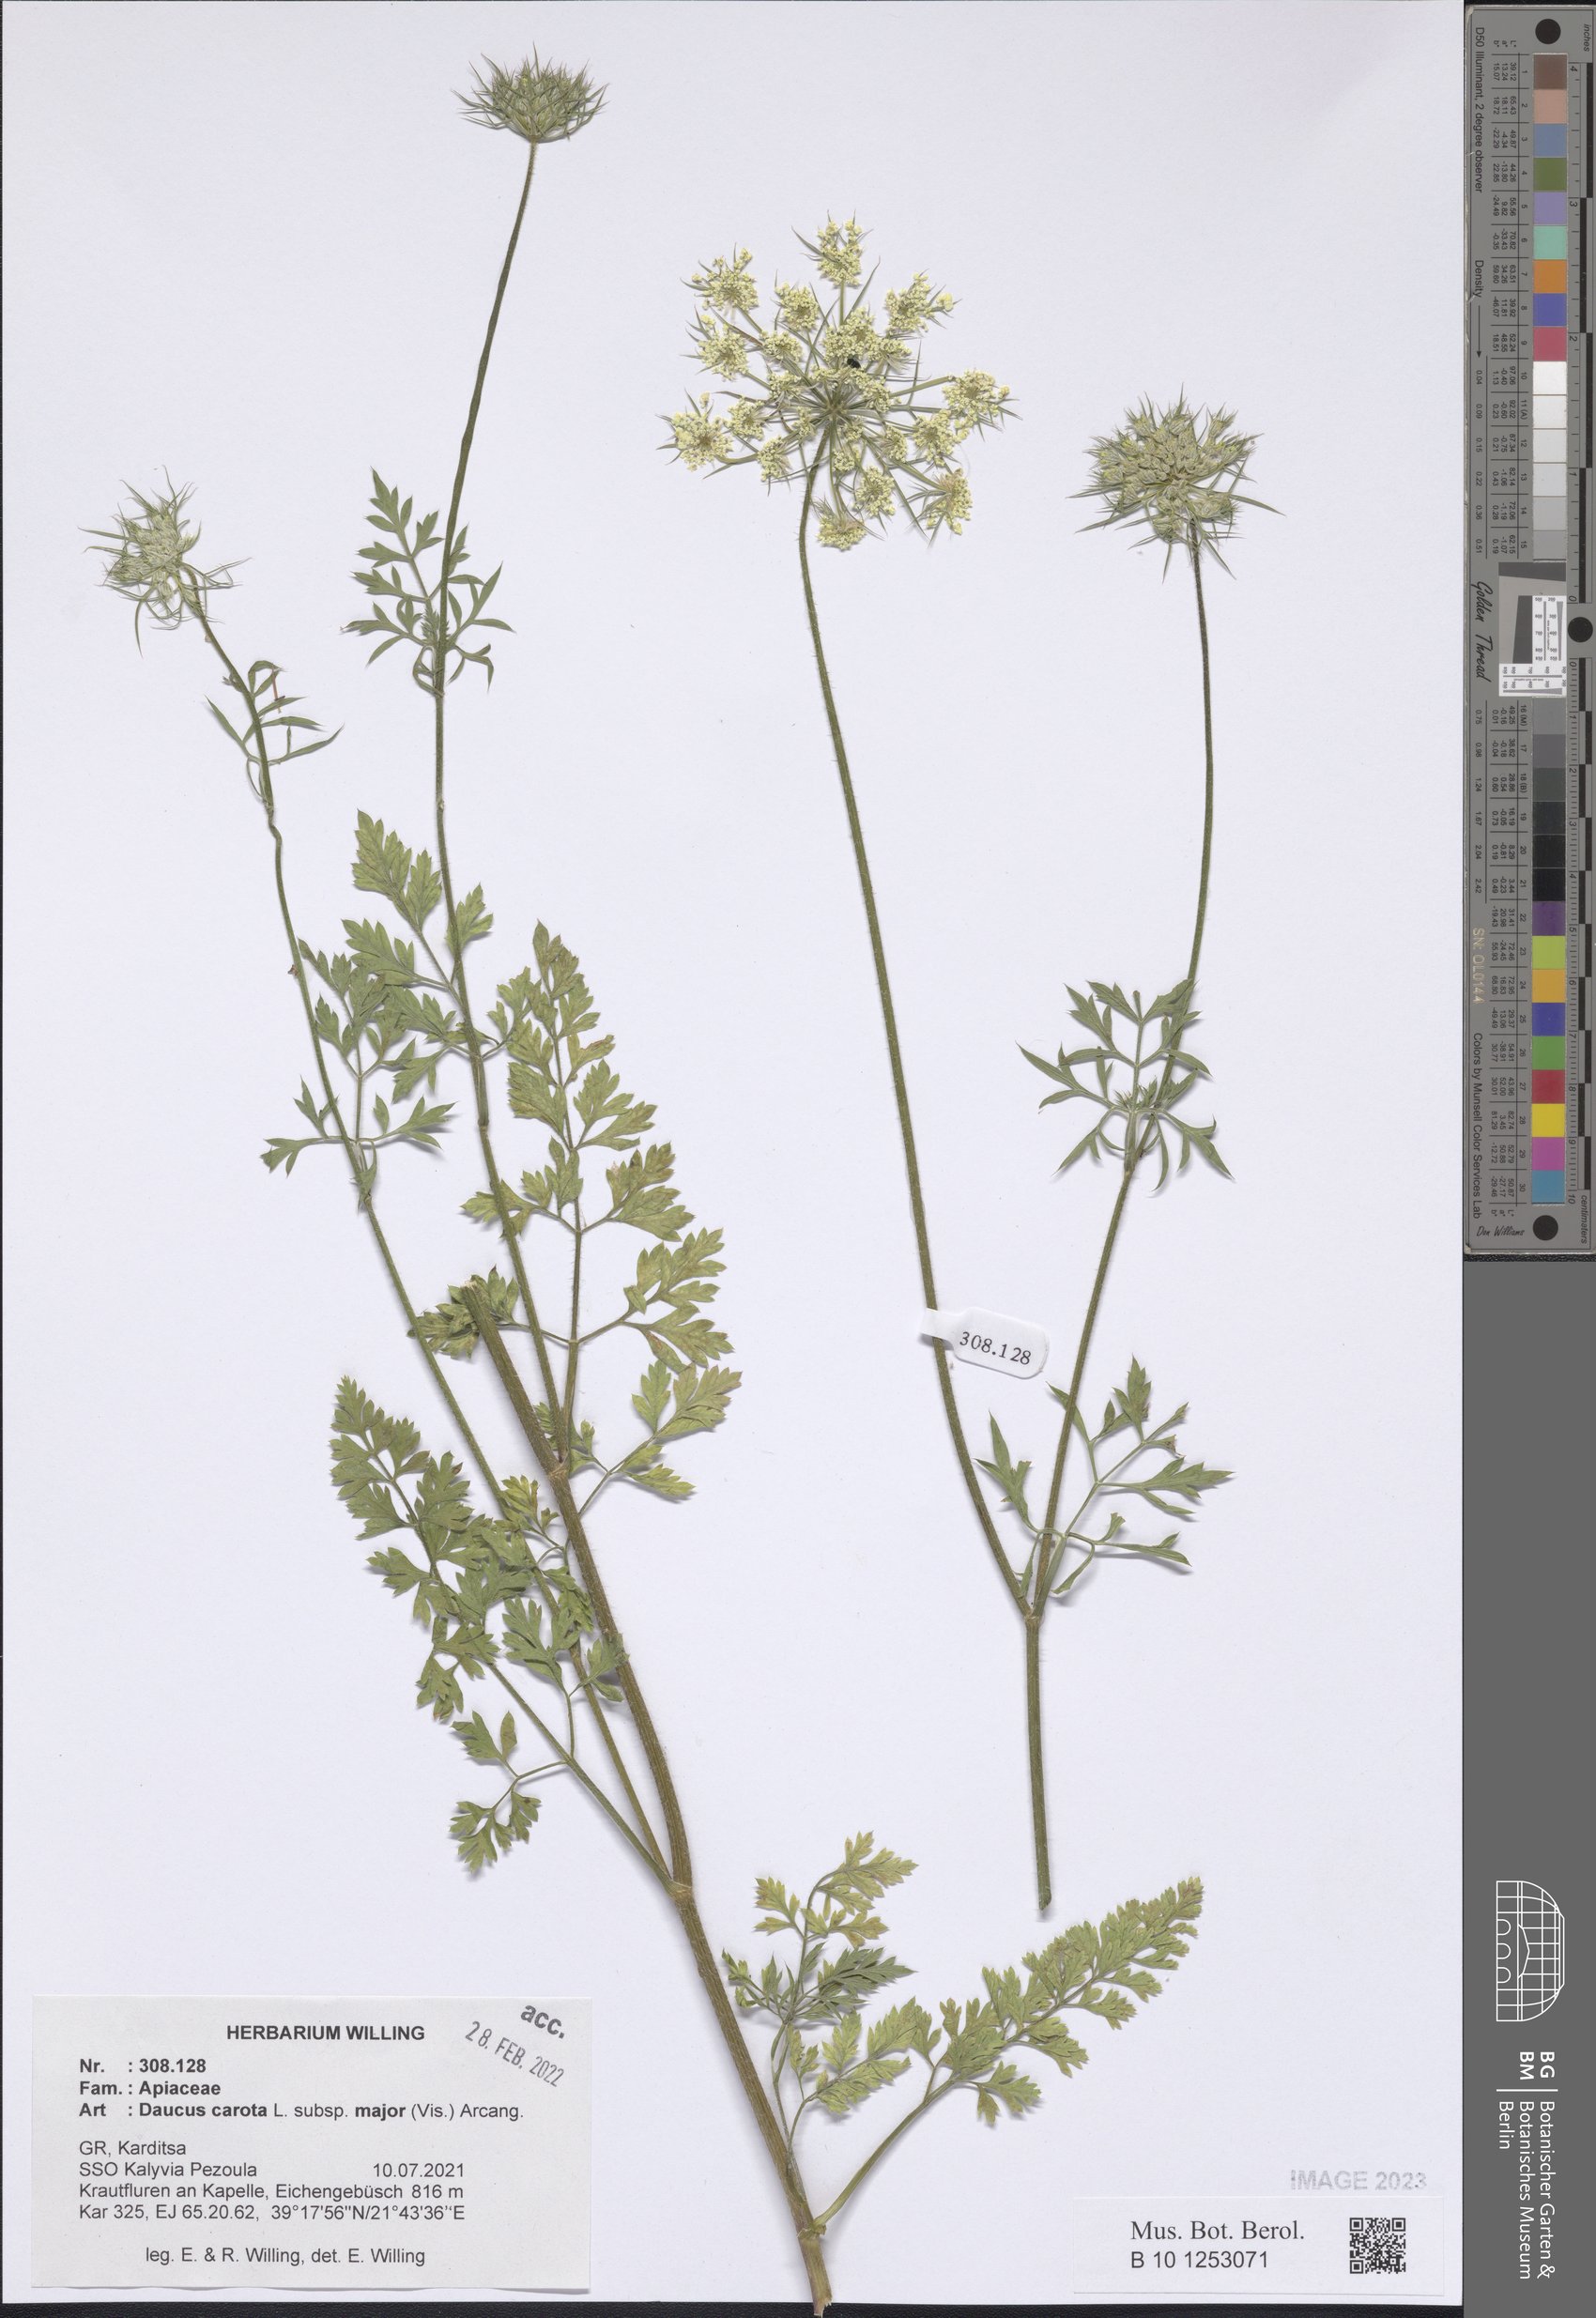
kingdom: Plantae
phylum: Tracheophyta
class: Magnoliopsida
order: Apiales
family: Apiaceae
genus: Daucus
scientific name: Daucus carota
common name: Wild carrot
